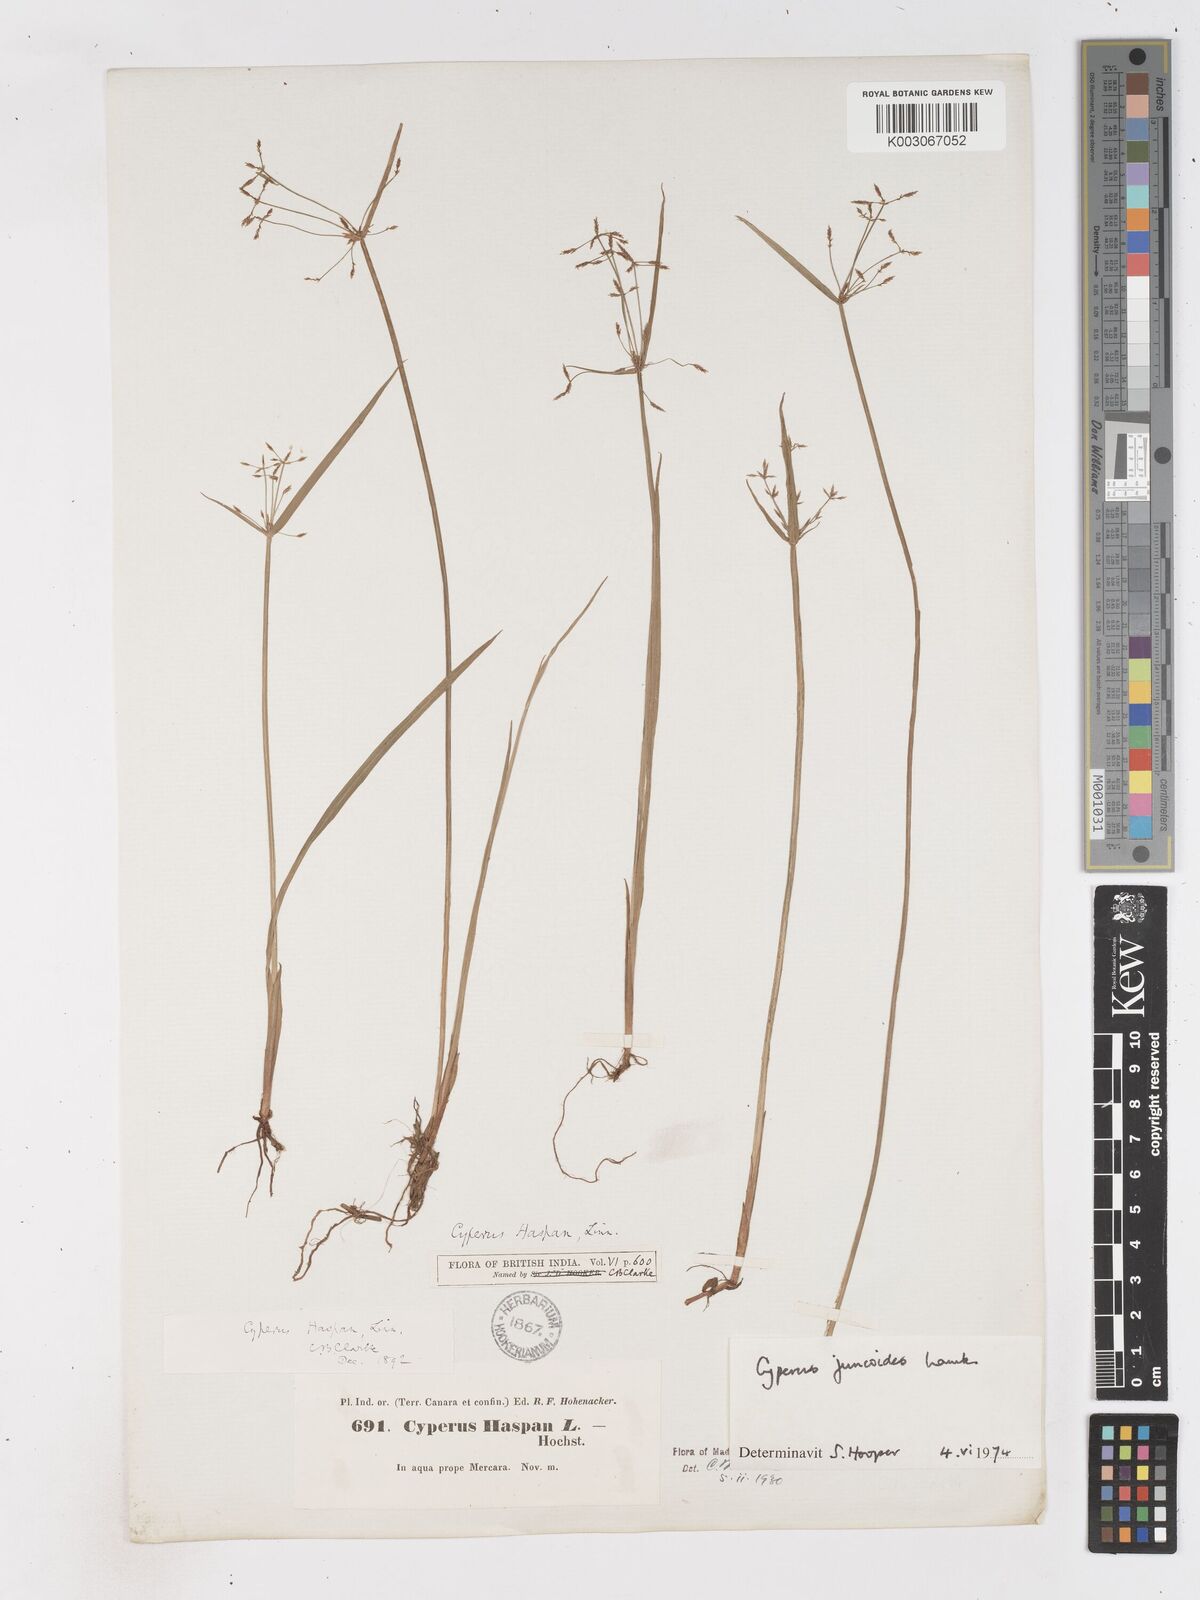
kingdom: Plantae
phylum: Tracheophyta
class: Liliopsida
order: Poales
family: Cyperaceae
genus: Cyperus
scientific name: Cyperus haspan
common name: Haspan flatsedge
